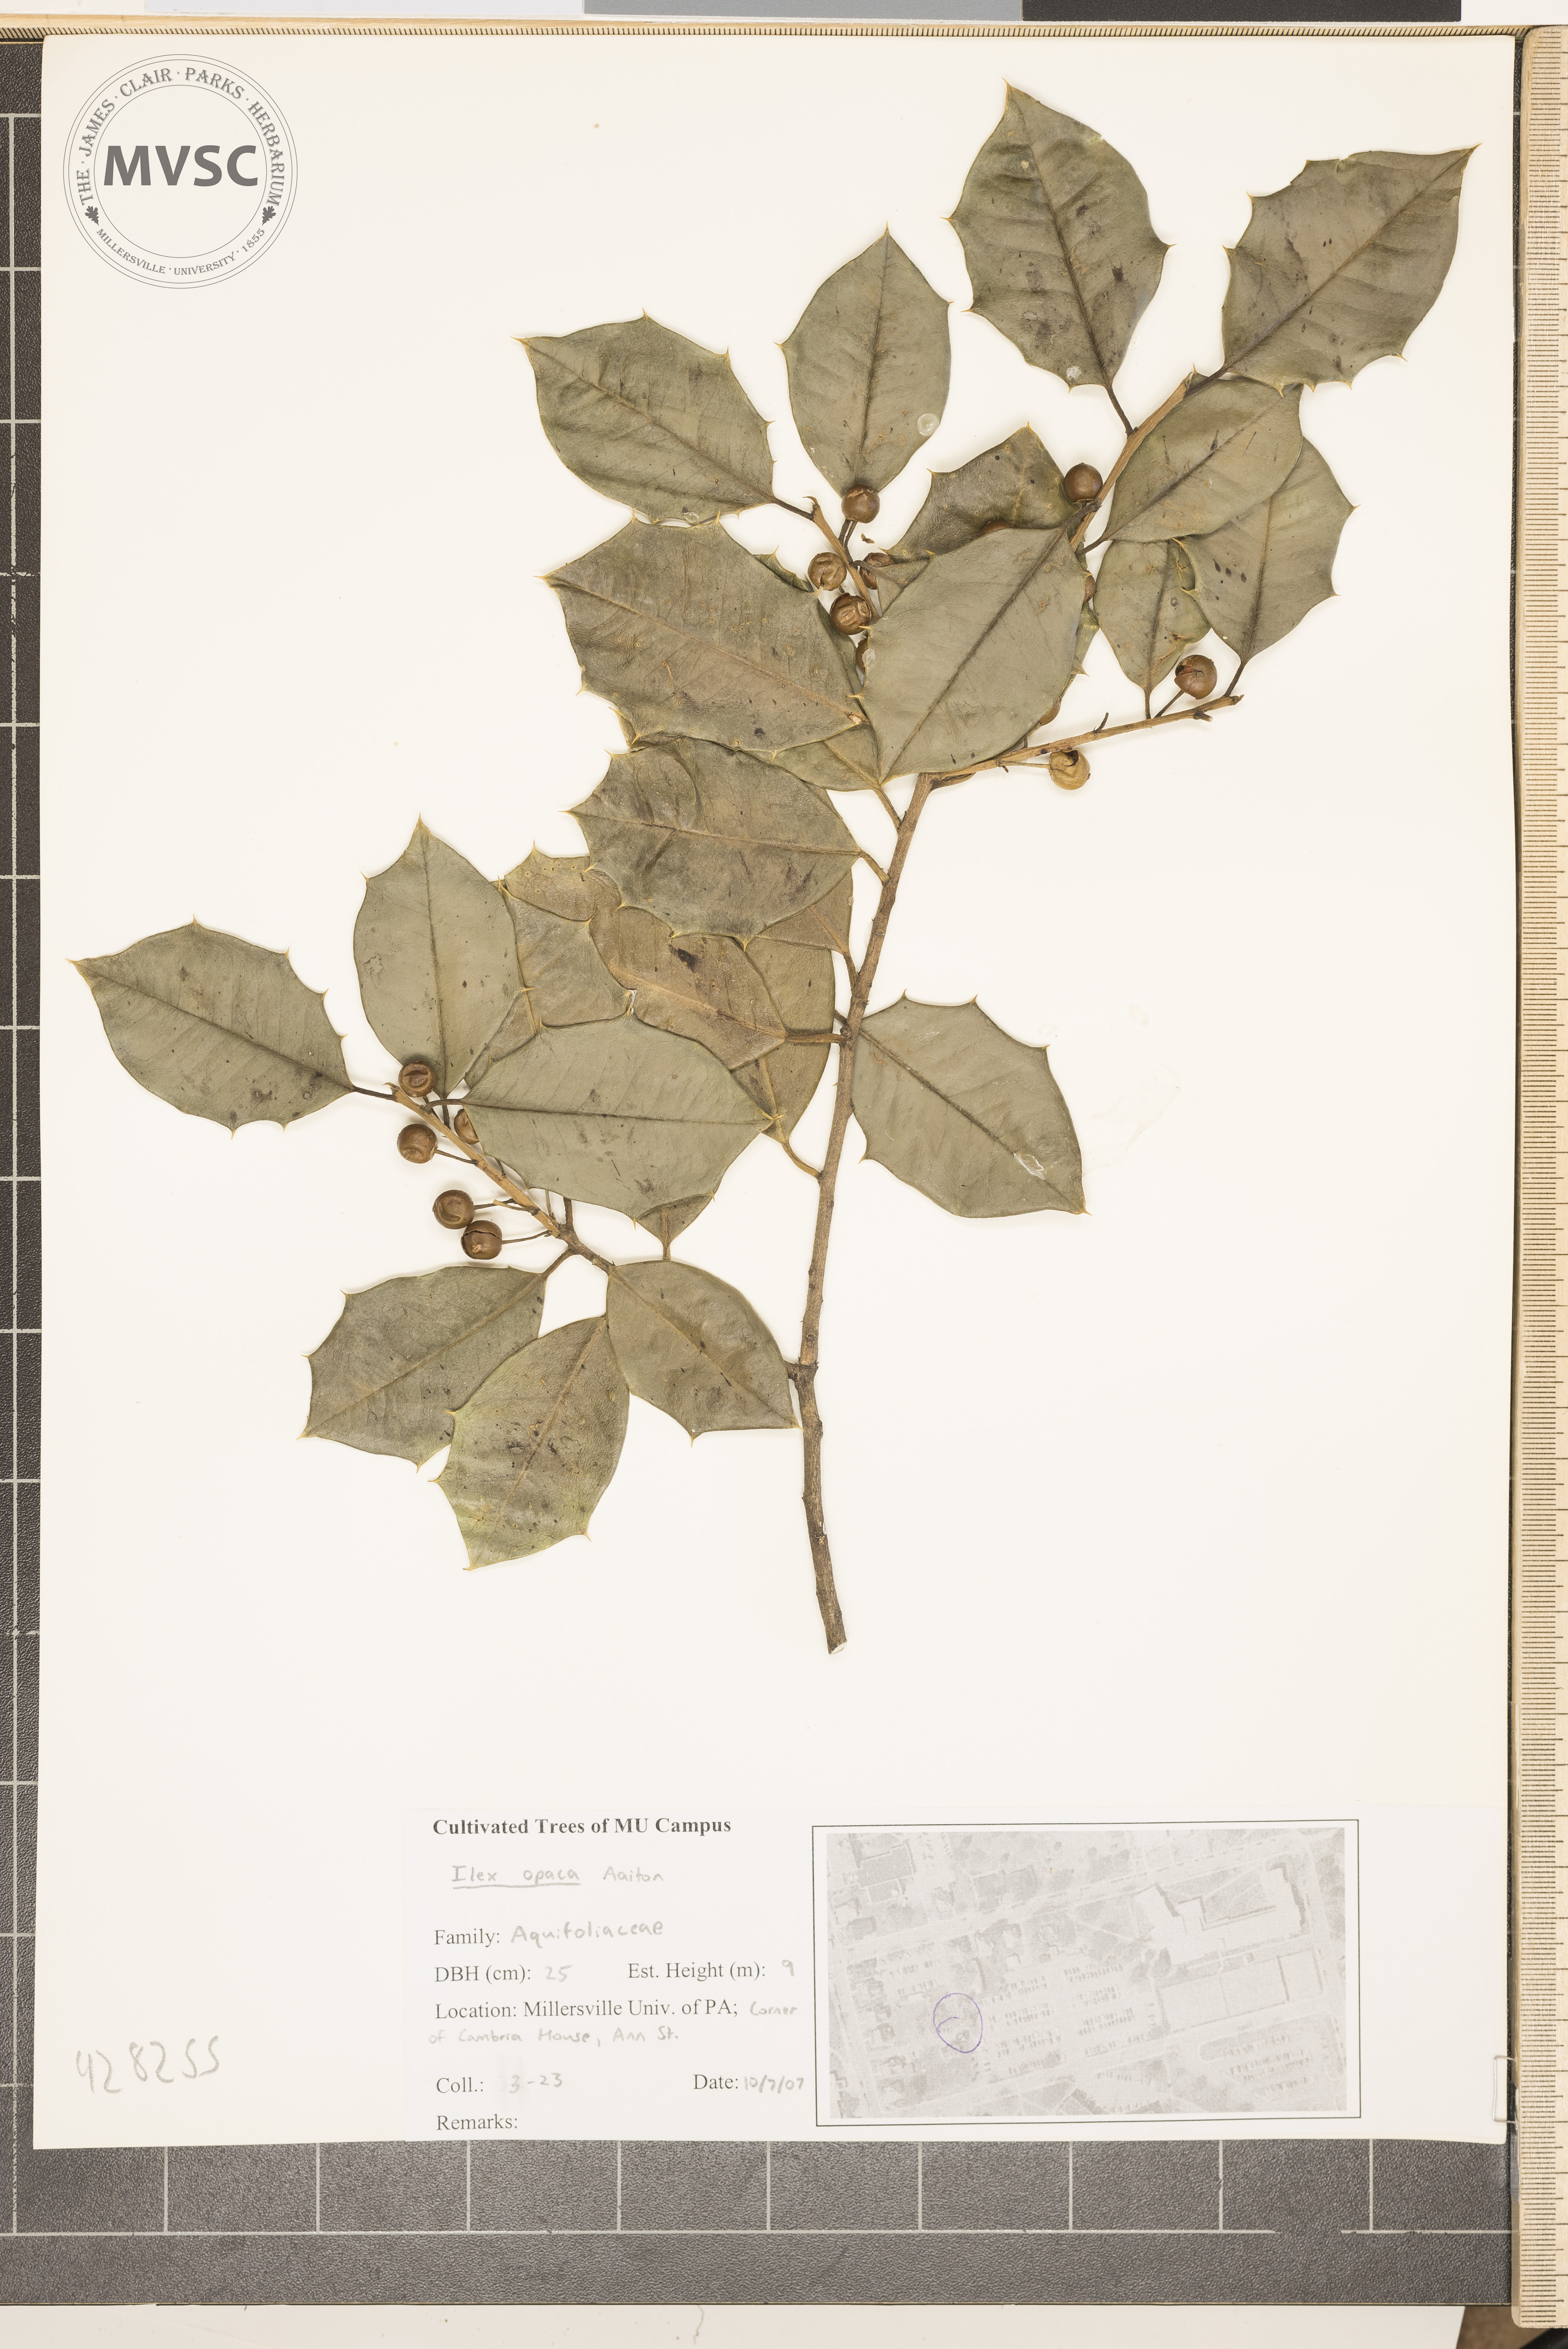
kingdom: Plantae
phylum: Tracheophyta
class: Magnoliopsida
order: Aquifoliales
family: Aquifoliaceae
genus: Ilex
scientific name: Ilex opaca
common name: American holly
